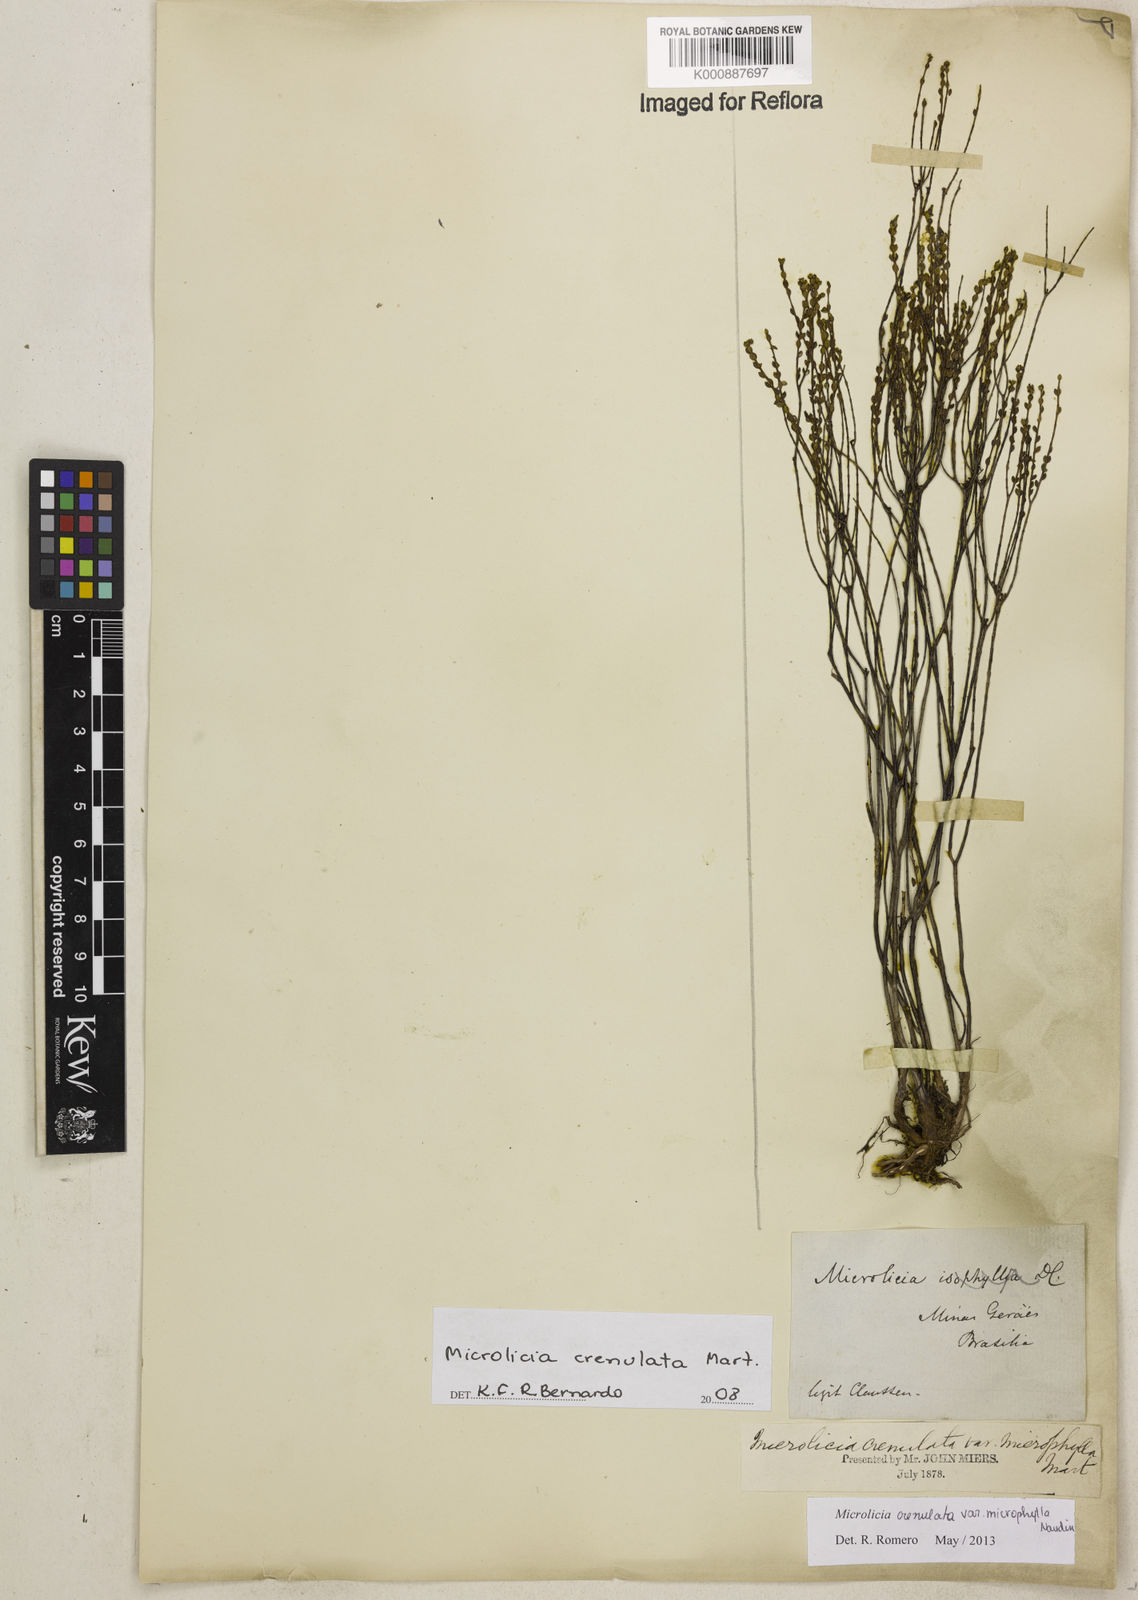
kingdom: Plantae
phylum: Tracheophyta
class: Magnoliopsida
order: Myrtales
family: Melastomataceae
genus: Microlicia
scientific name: Microlicia crenulata
